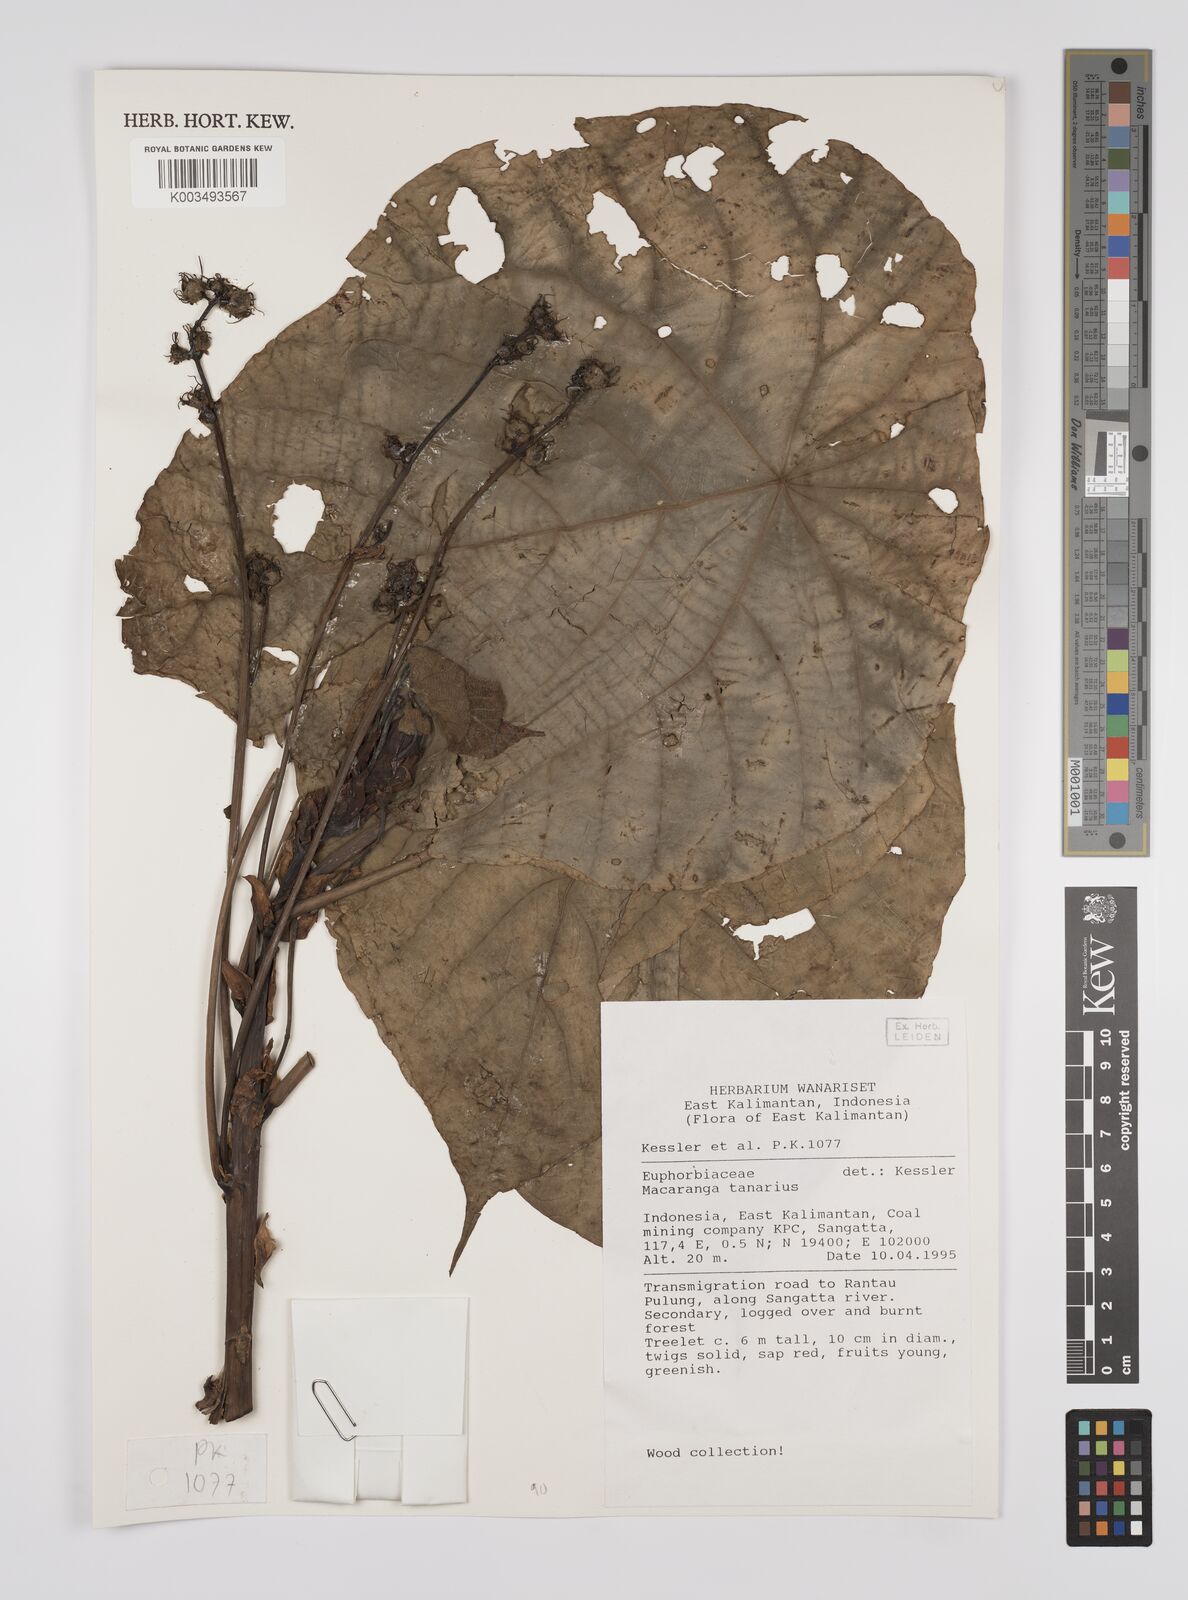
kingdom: Plantae
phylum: Tracheophyta
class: Magnoliopsida
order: Malpighiales
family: Euphorbiaceae
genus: Macaranga
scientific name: Macaranga tanarius
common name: Parasol leaf tree
